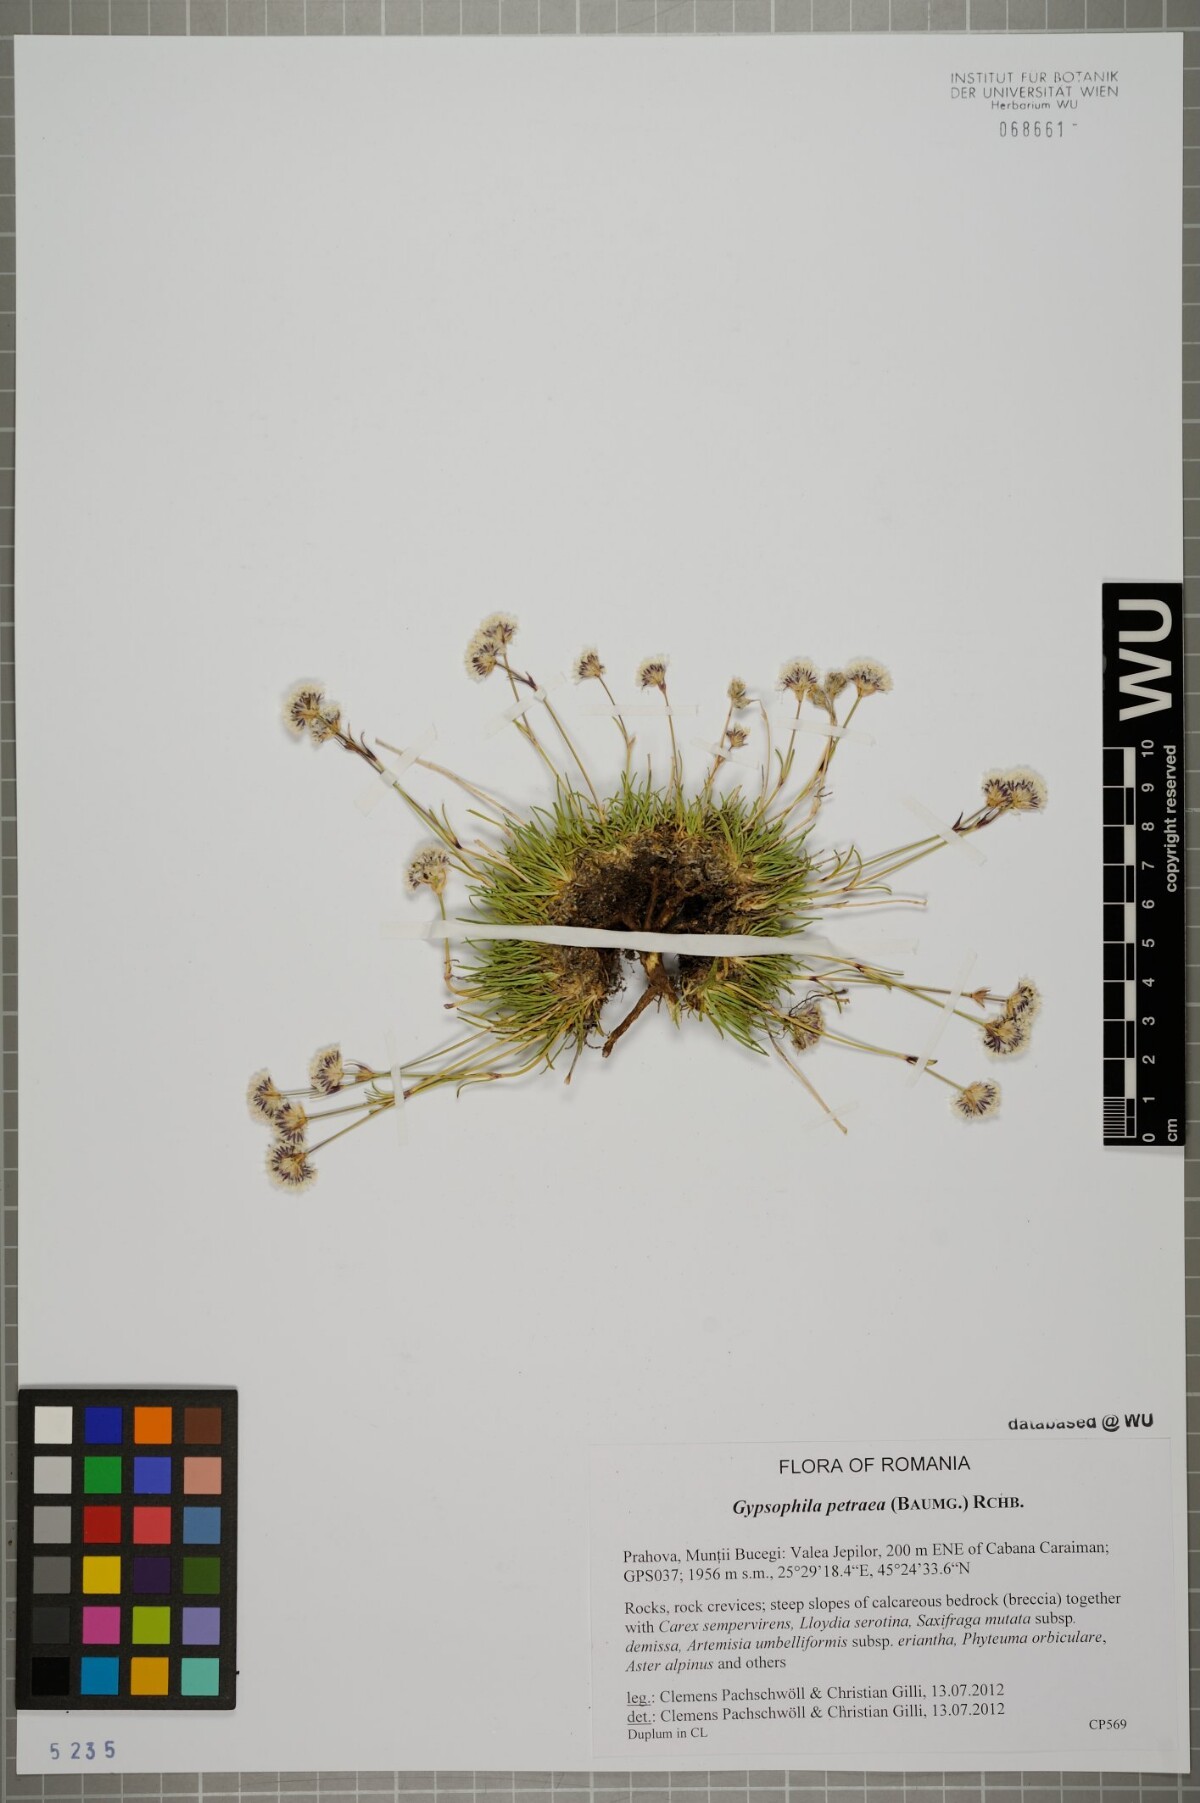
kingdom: Plantae
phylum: Tracheophyta
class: Magnoliopsida
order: Caryophyllales
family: Caryophyllaceae
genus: Gypsophila
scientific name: Gypsophila petraea
